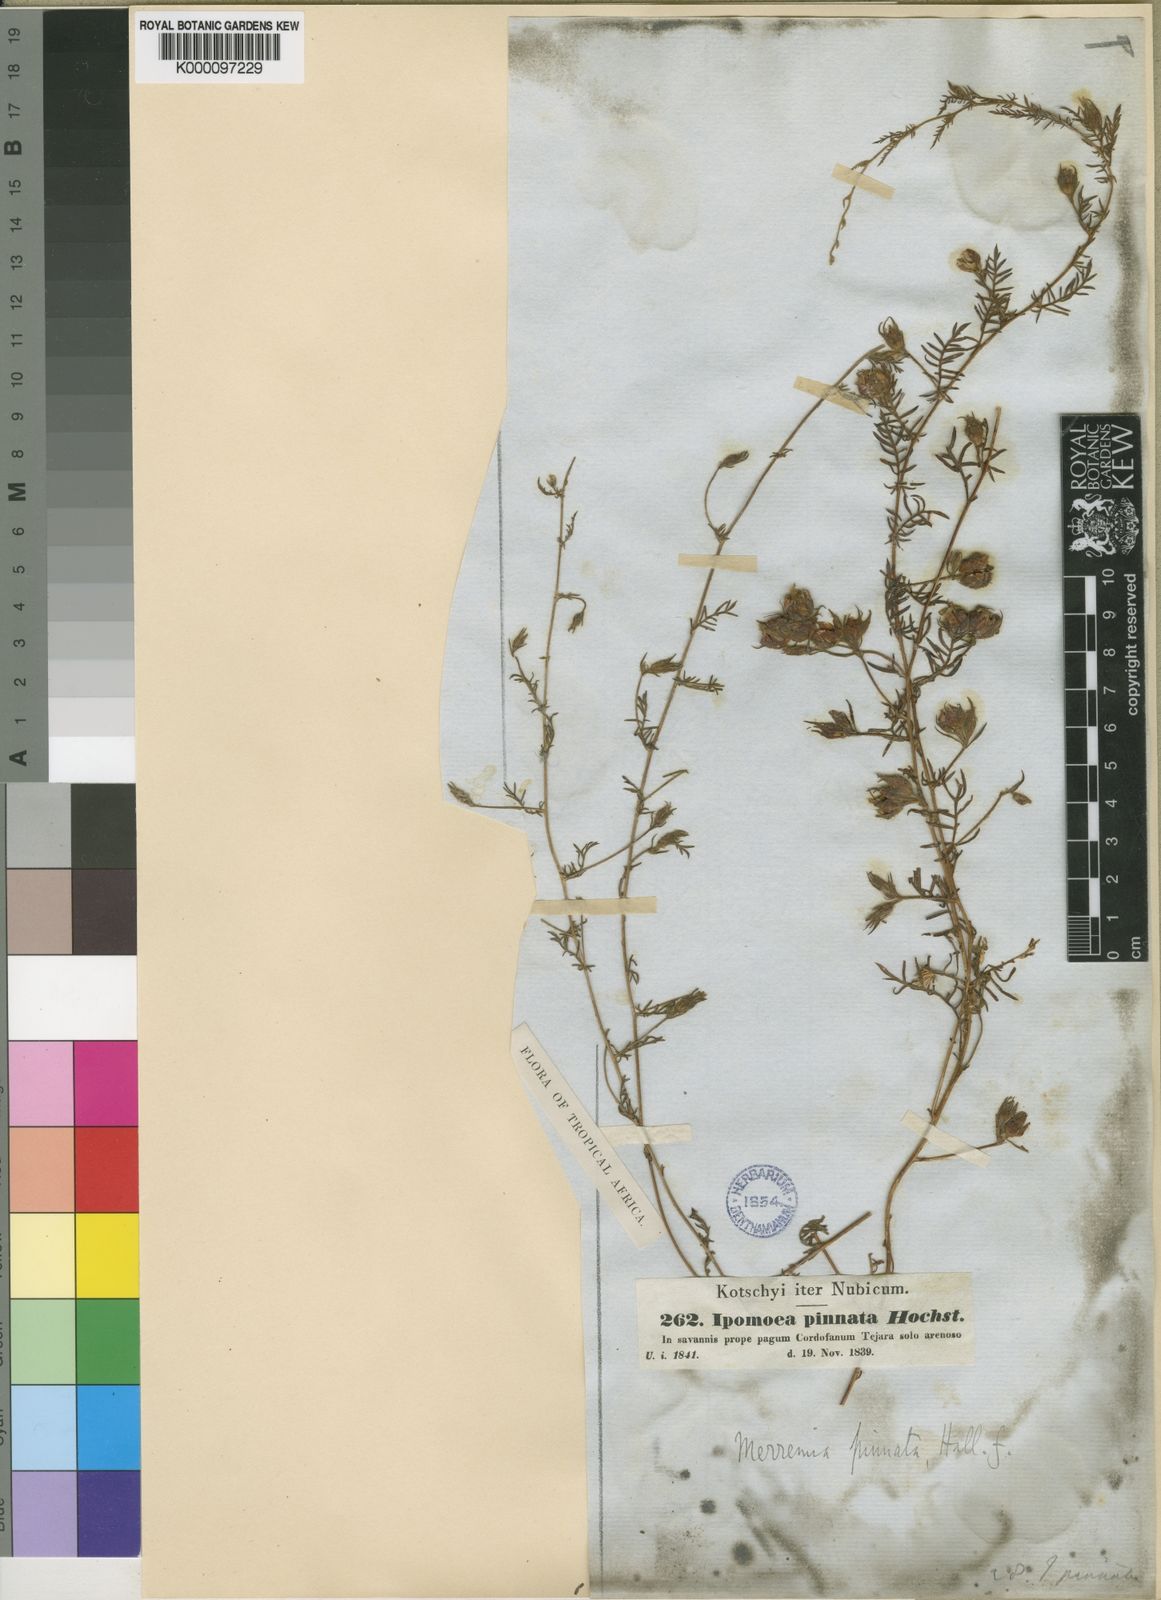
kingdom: Plantae
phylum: Tracheophyta
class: Magnoliopsida
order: Solanales
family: Convolvulaceae
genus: Xenostegia
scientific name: Xenostegia
